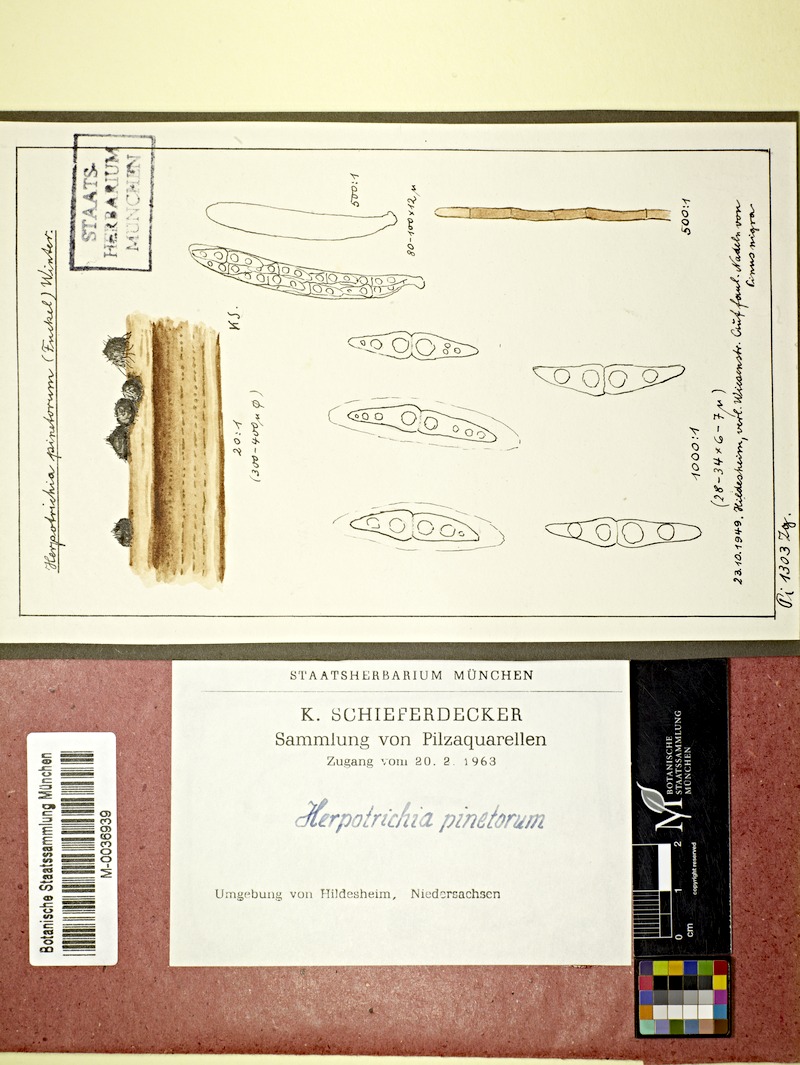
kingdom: Plantae
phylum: Tracheophyta
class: Pinopsida
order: Pinales
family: Pinaceae
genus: Pinus
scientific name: Pinus nigra
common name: Austrian pine
